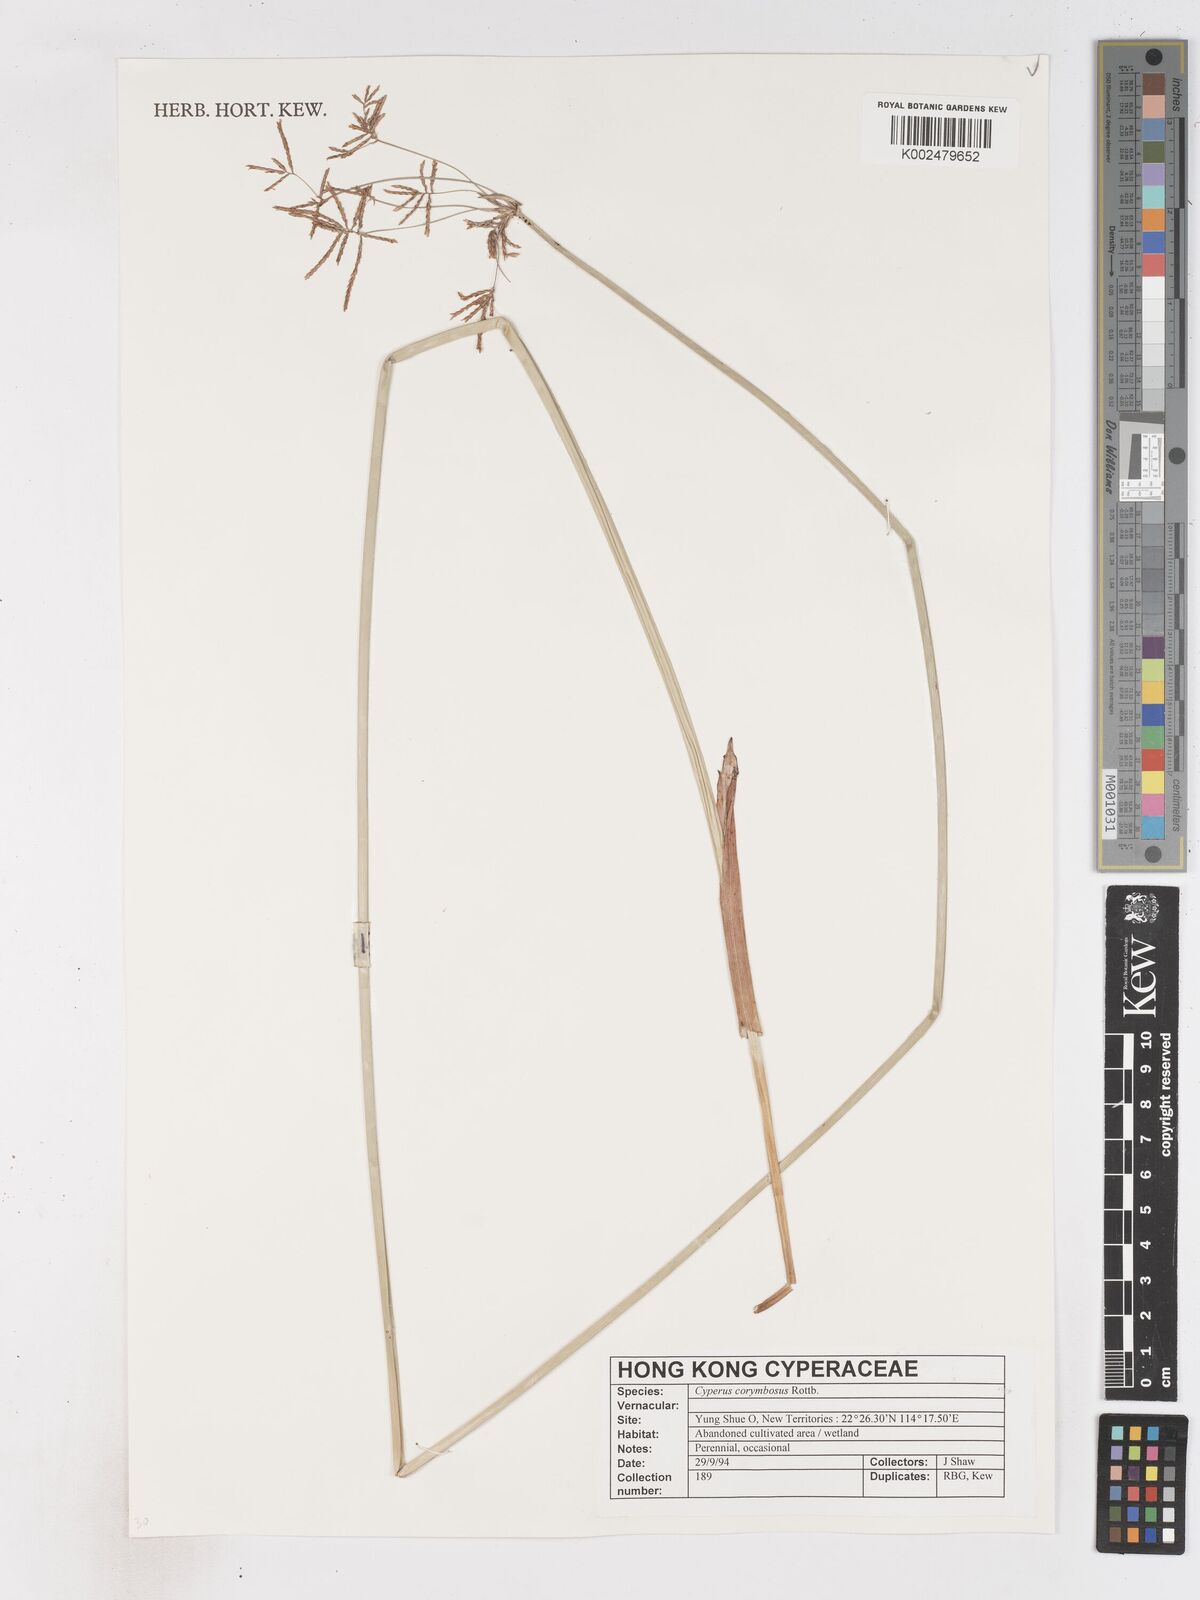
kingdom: Plantae
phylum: Tracheophyta
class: Liliopsida
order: Poales
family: Cyperaceae
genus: Cyperus
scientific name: Cyperus corymbosus
